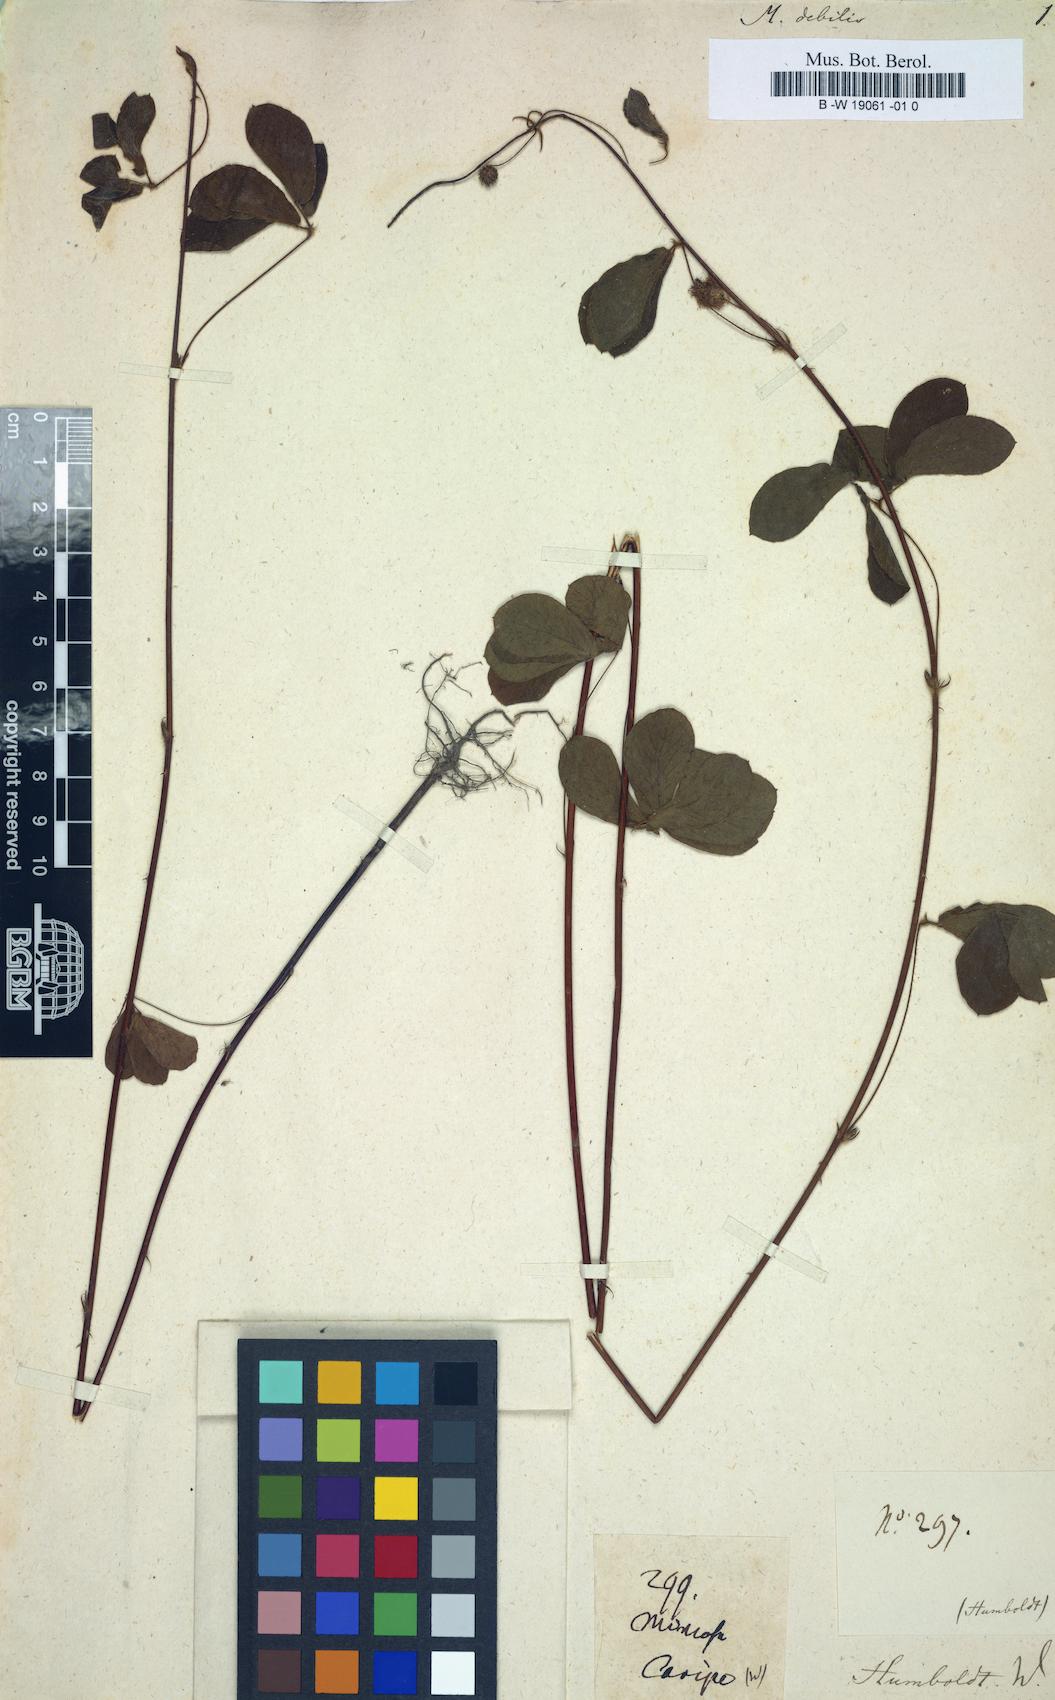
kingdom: Plantae
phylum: Tracheophyta
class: Magnoliopsida
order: Fabales
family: Fabaceae
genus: Mimosa
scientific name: Mimosa debilis
